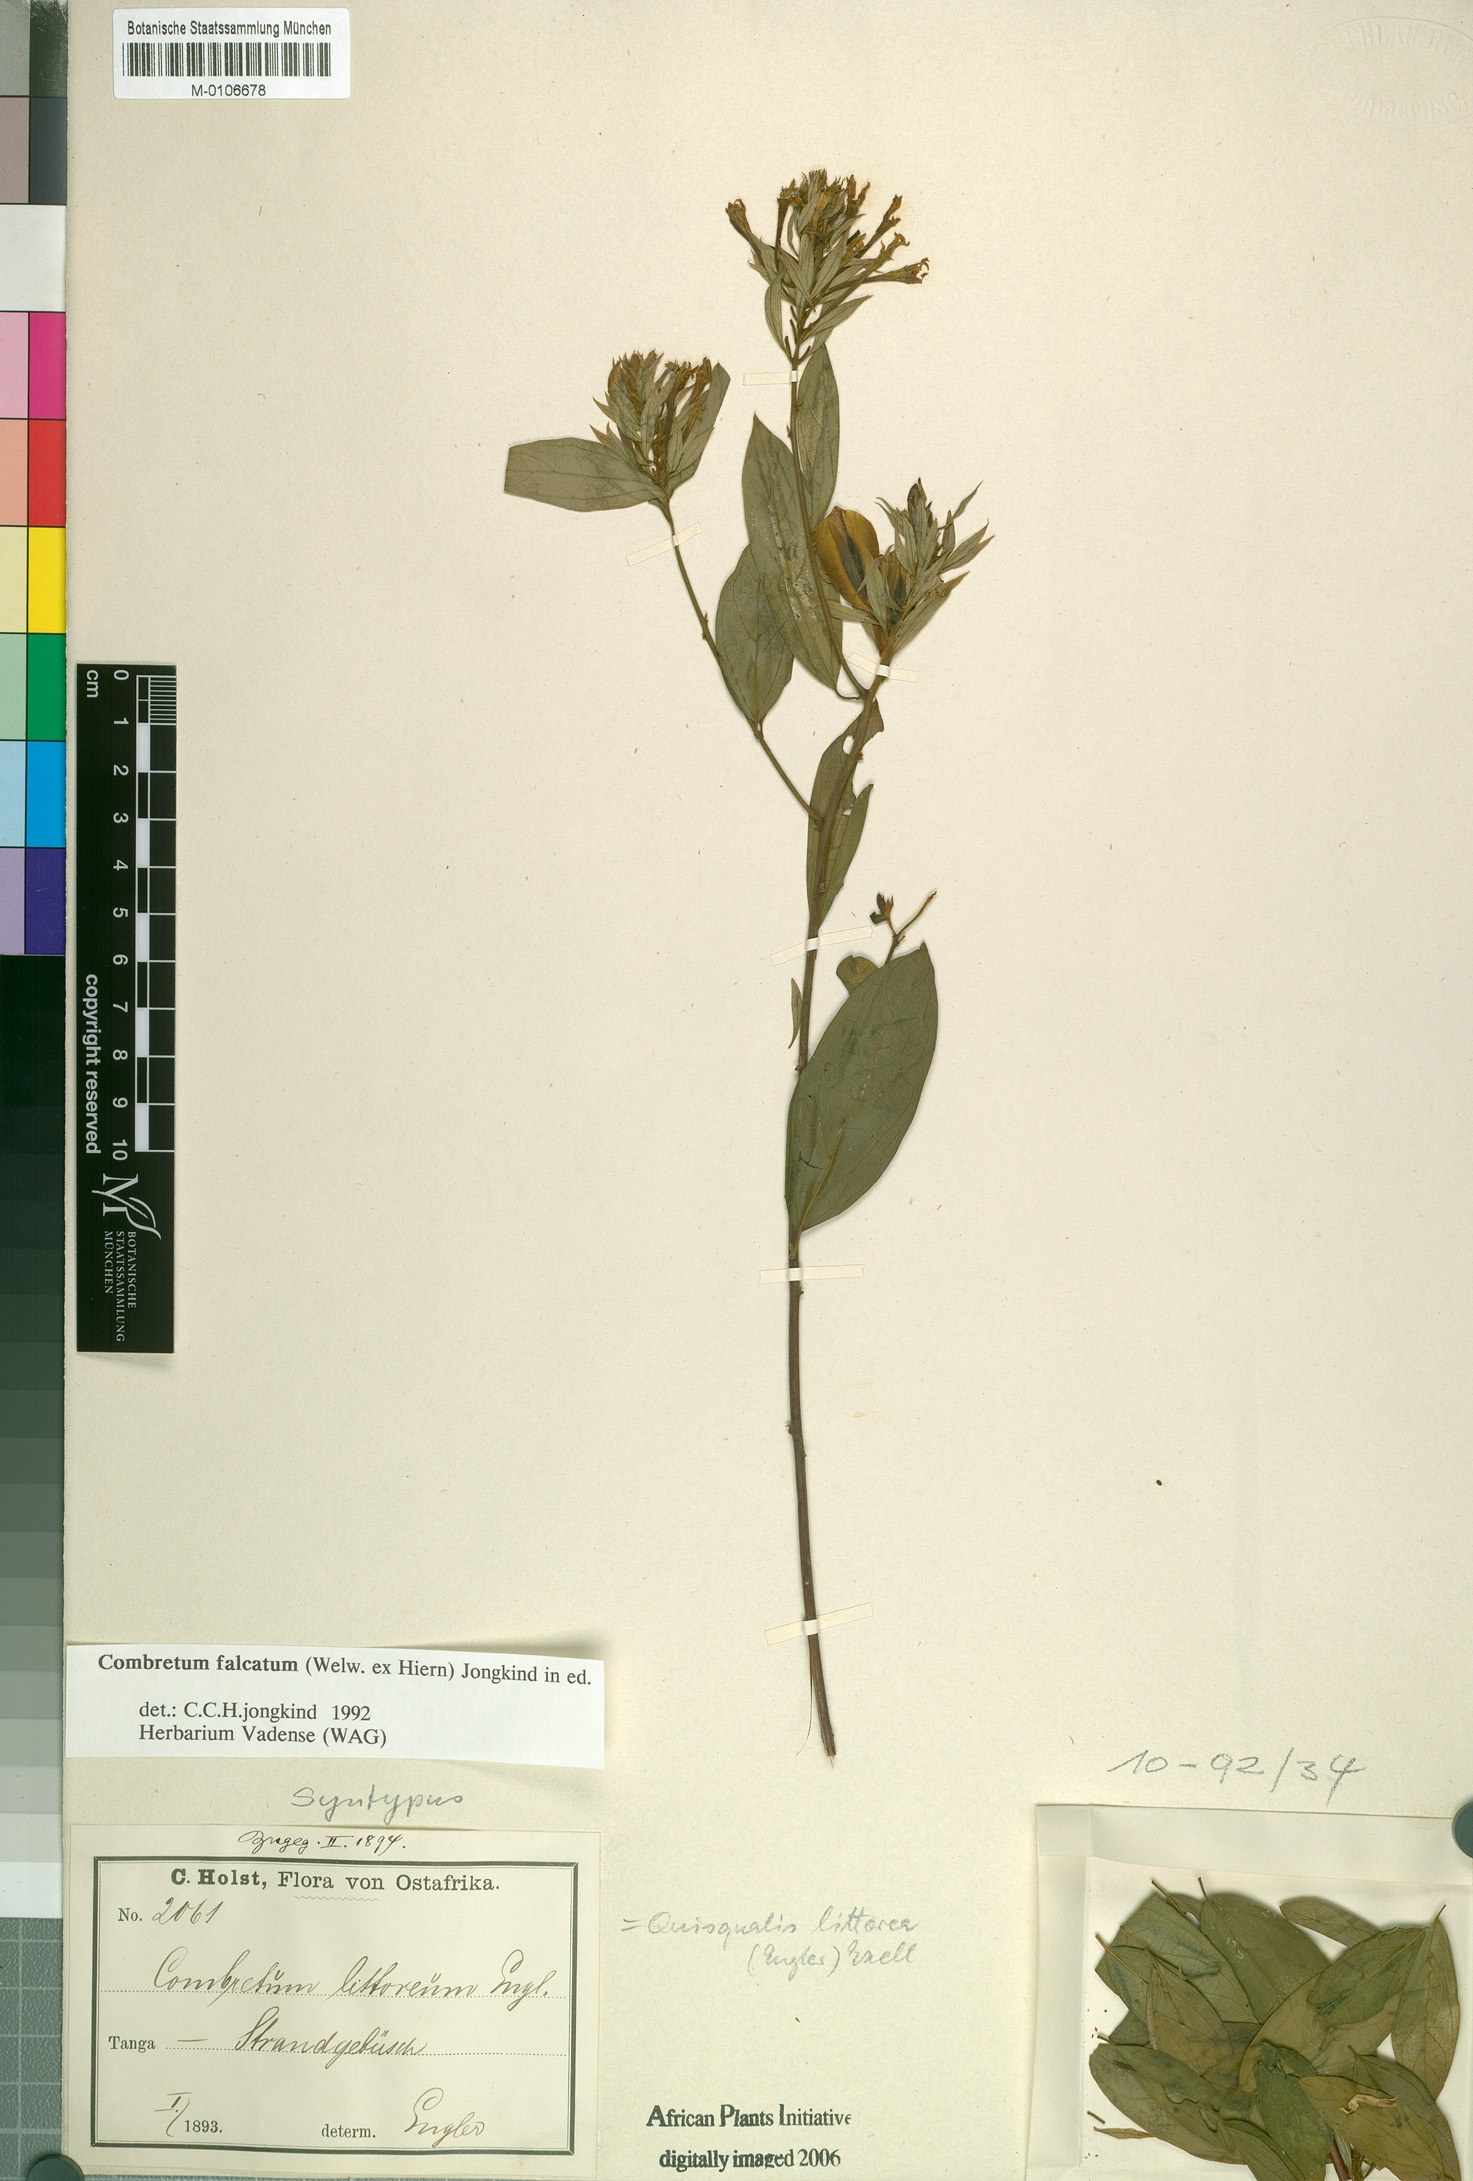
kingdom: Plantae
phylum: Tracheophyta
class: Magnoliopsida
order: Myrtales
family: Combretaceae
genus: Combretum
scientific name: Combretum falcatum
